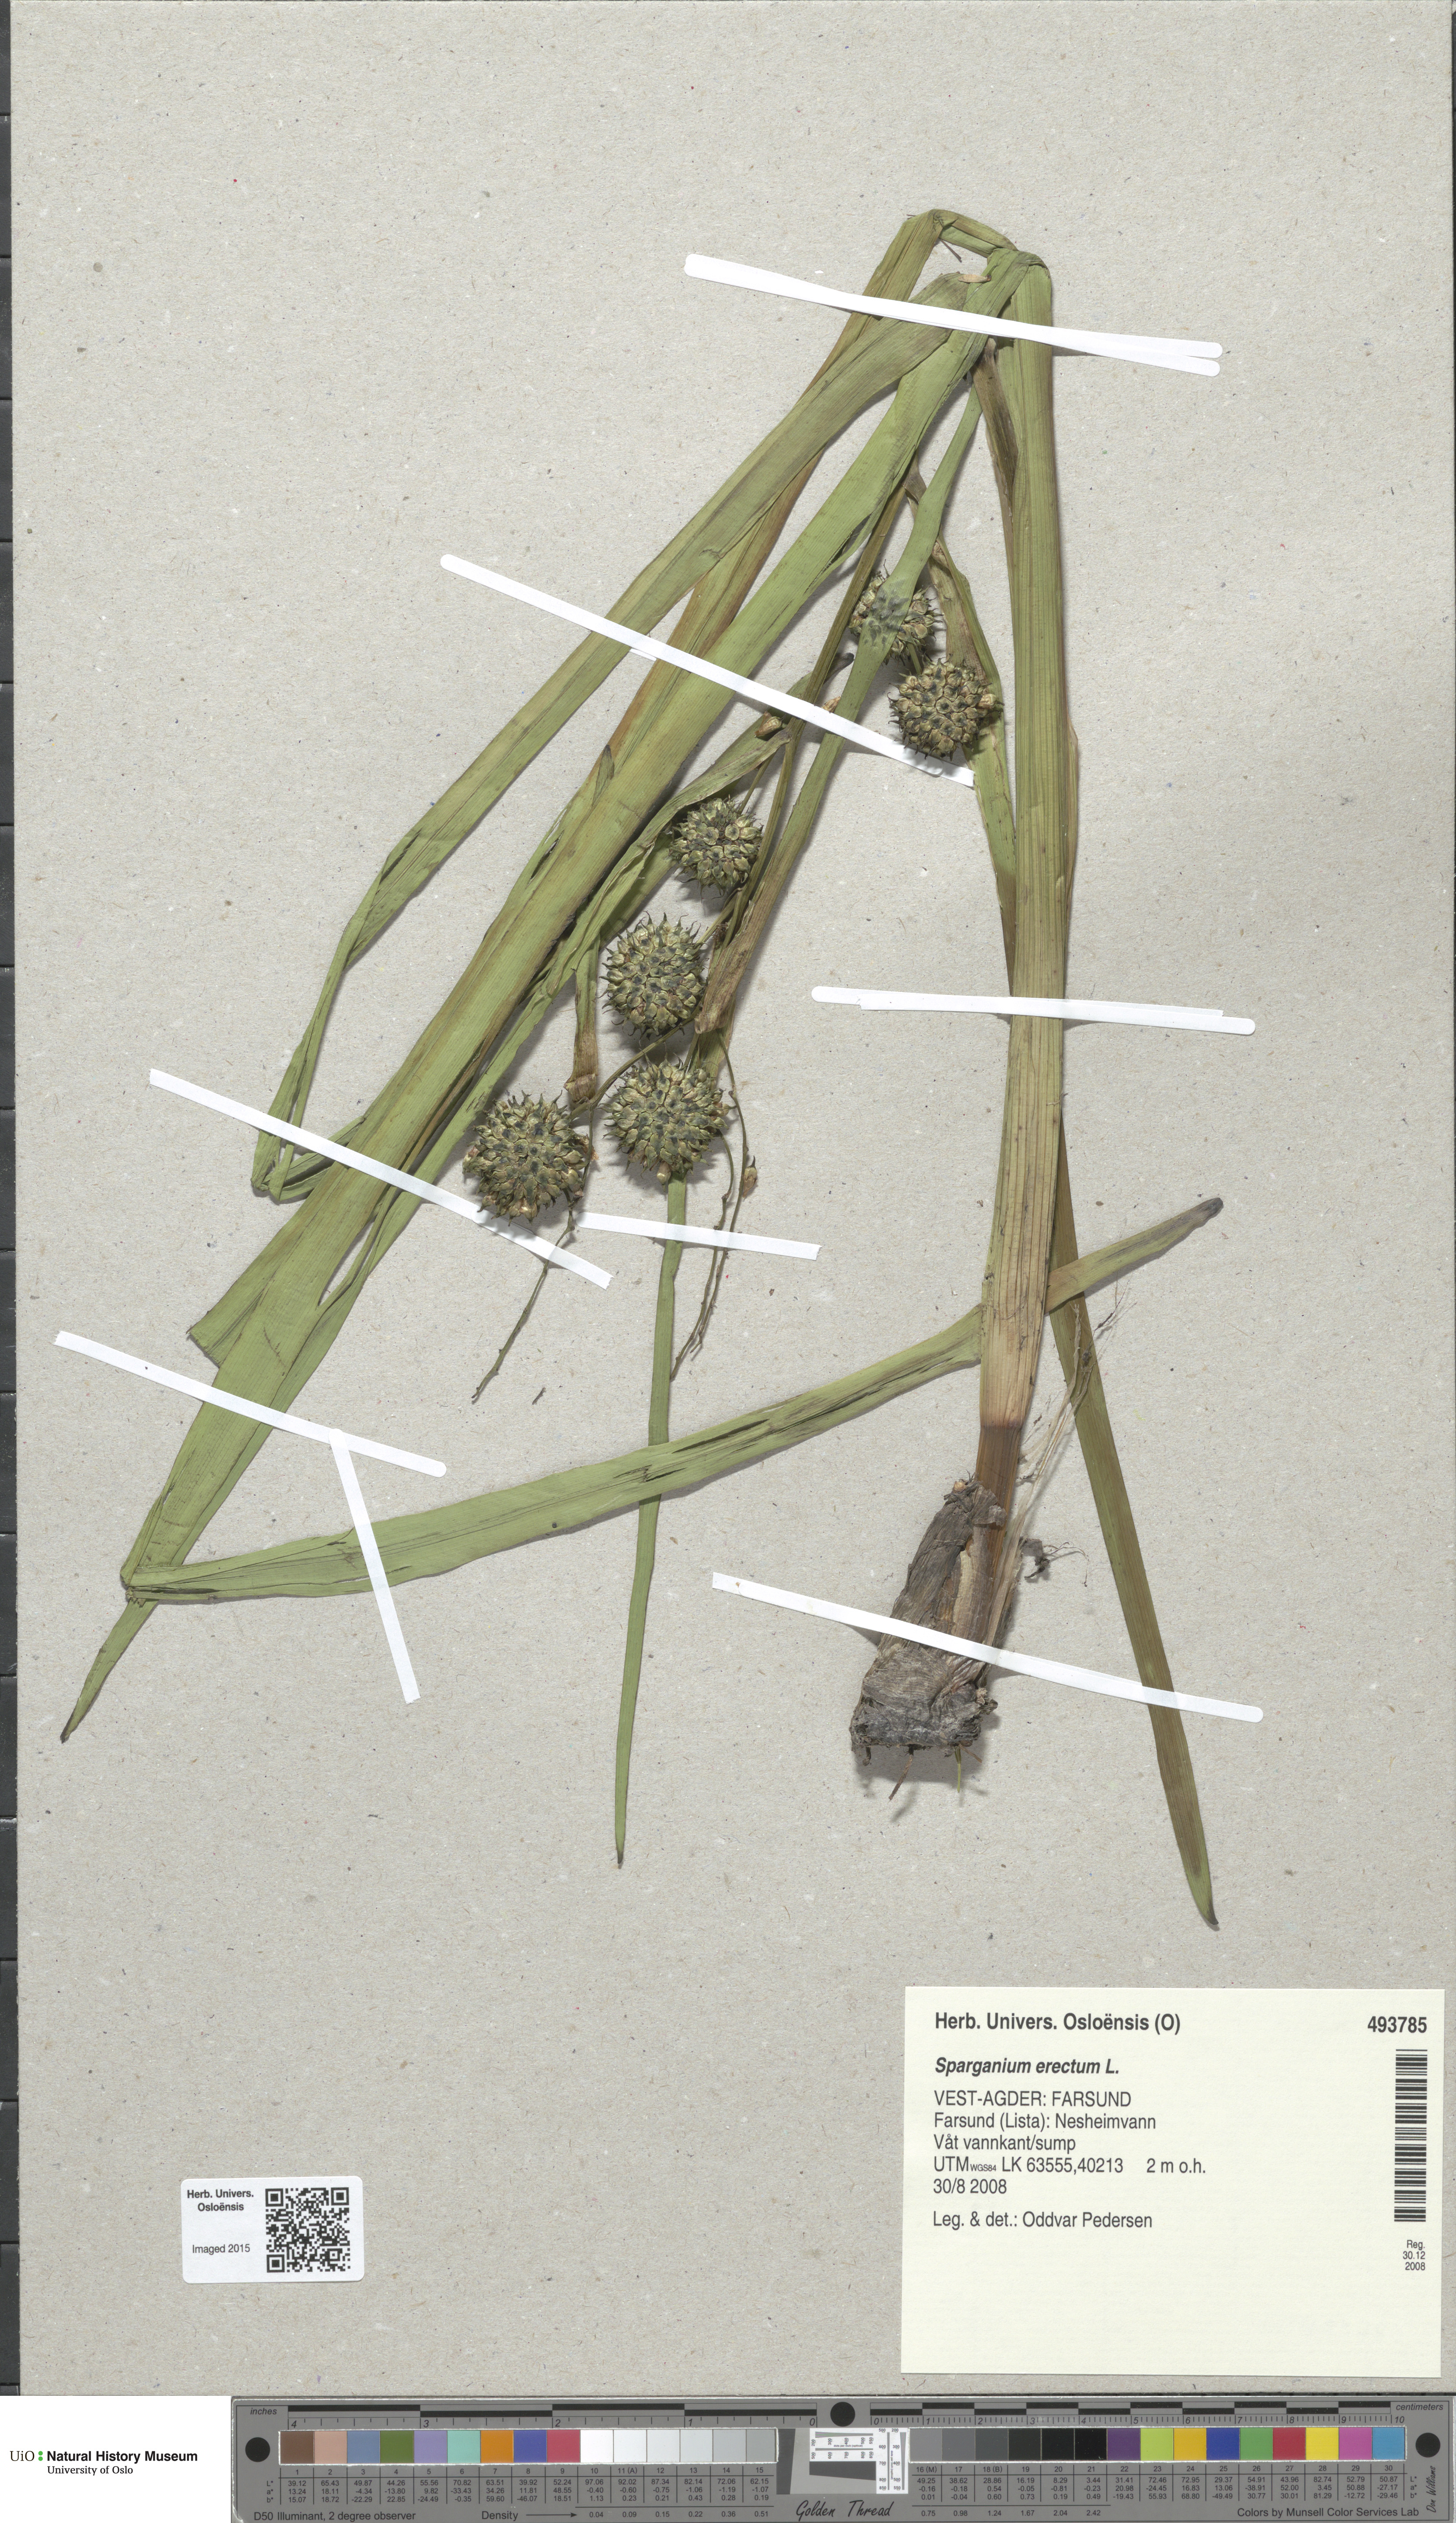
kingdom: Plantae
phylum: Tracheophyta
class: Liliopsida
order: Poales
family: Typhaceae
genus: Sparganium
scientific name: Sparganium erectum
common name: Branched bur-reed
